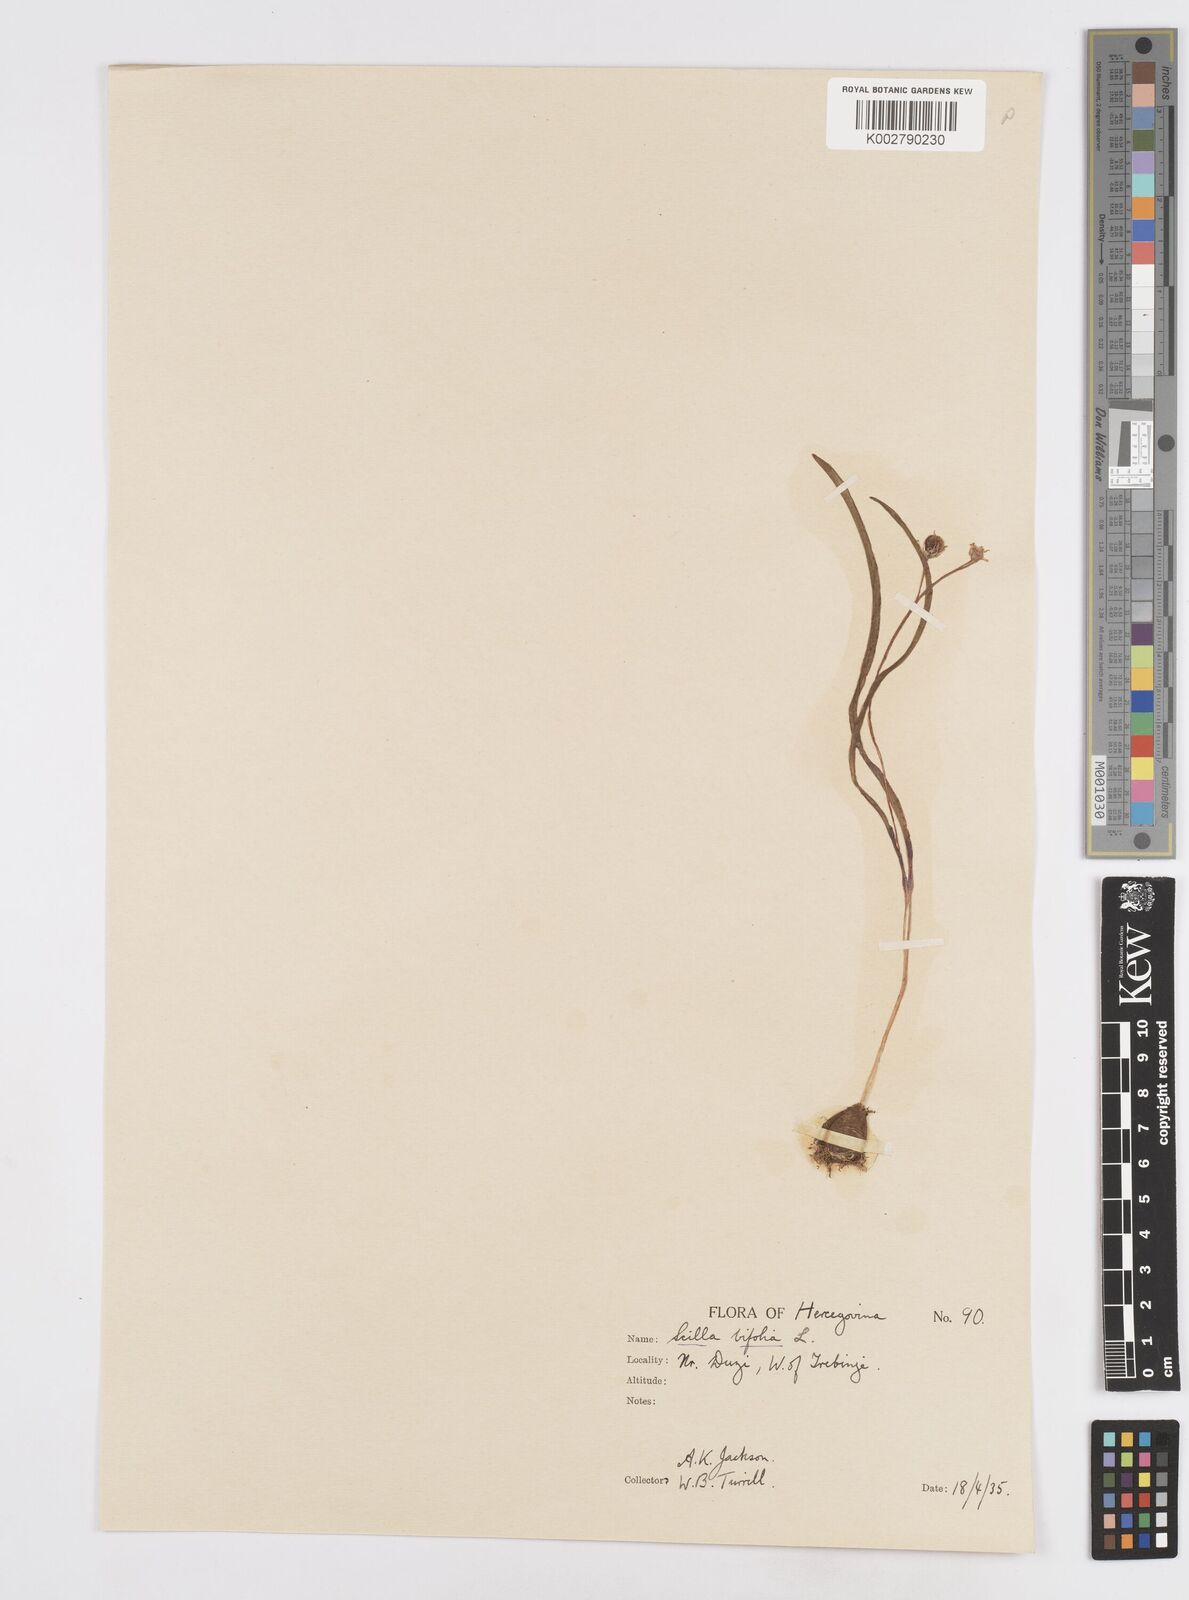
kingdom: Plantae
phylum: Tracheophyta
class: Liliopsida
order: Asparagales
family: Asparagaceae
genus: Scilla
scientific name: Scilla bifolia
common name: Alpine squill
